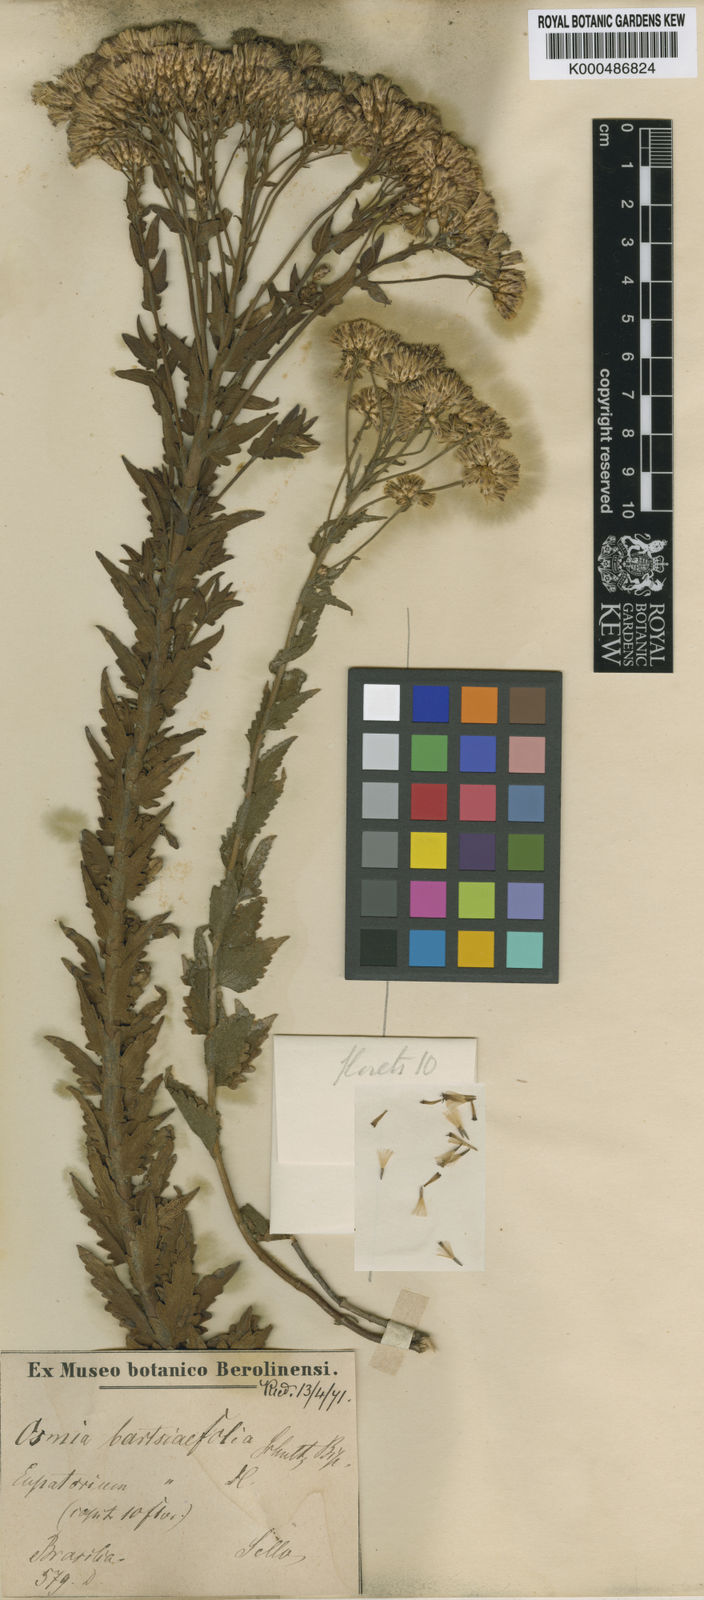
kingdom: Plantae
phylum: Tracheophyta
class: Magnoliopsida
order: Asterales
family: Asteraceae
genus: Chromolaena
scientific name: Chromolaena hirsuta
